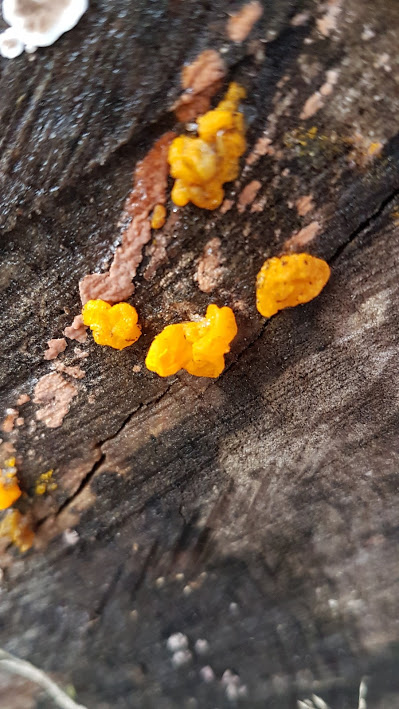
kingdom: Fungi
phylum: Basidiomycota
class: Tremellomycetes
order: Tremellales
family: Tremellaceae
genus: Tremella
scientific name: Tremella mesenterica
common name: gul bævresvamp
